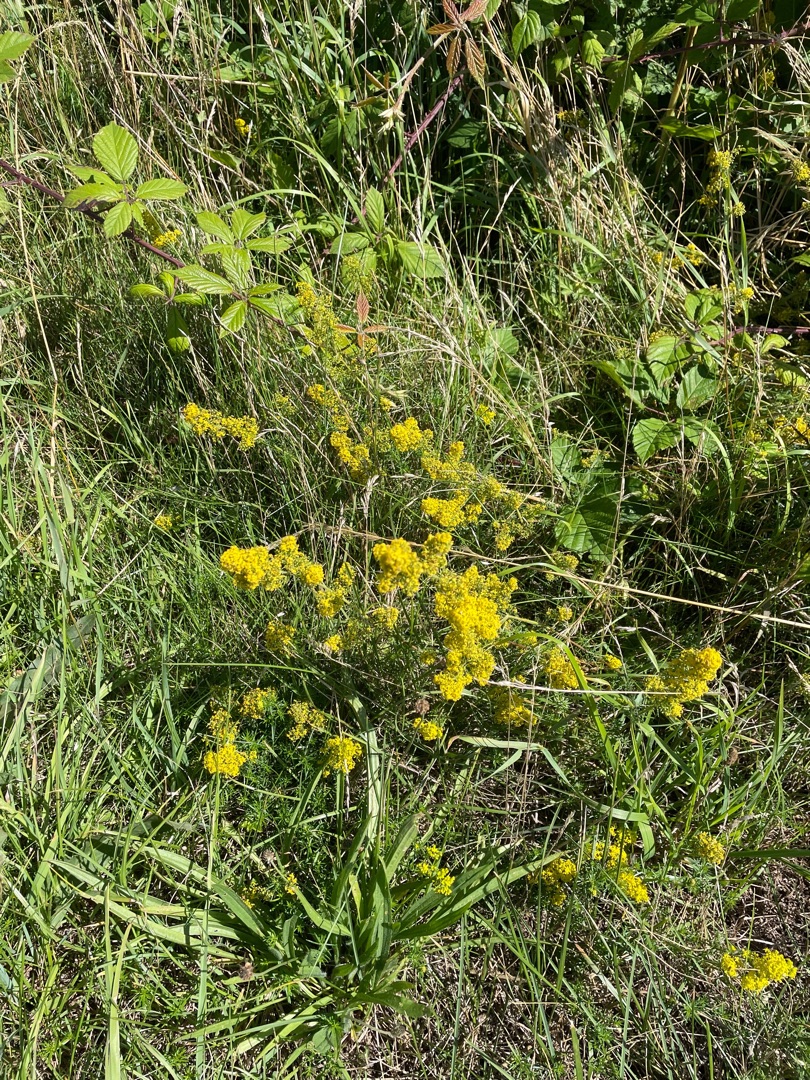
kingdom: Plantae
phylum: Tracheophyta
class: Magnoliopsida
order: Gentianales
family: Rubiaceae
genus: Galium
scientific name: Galium verum
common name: Gul snerre
